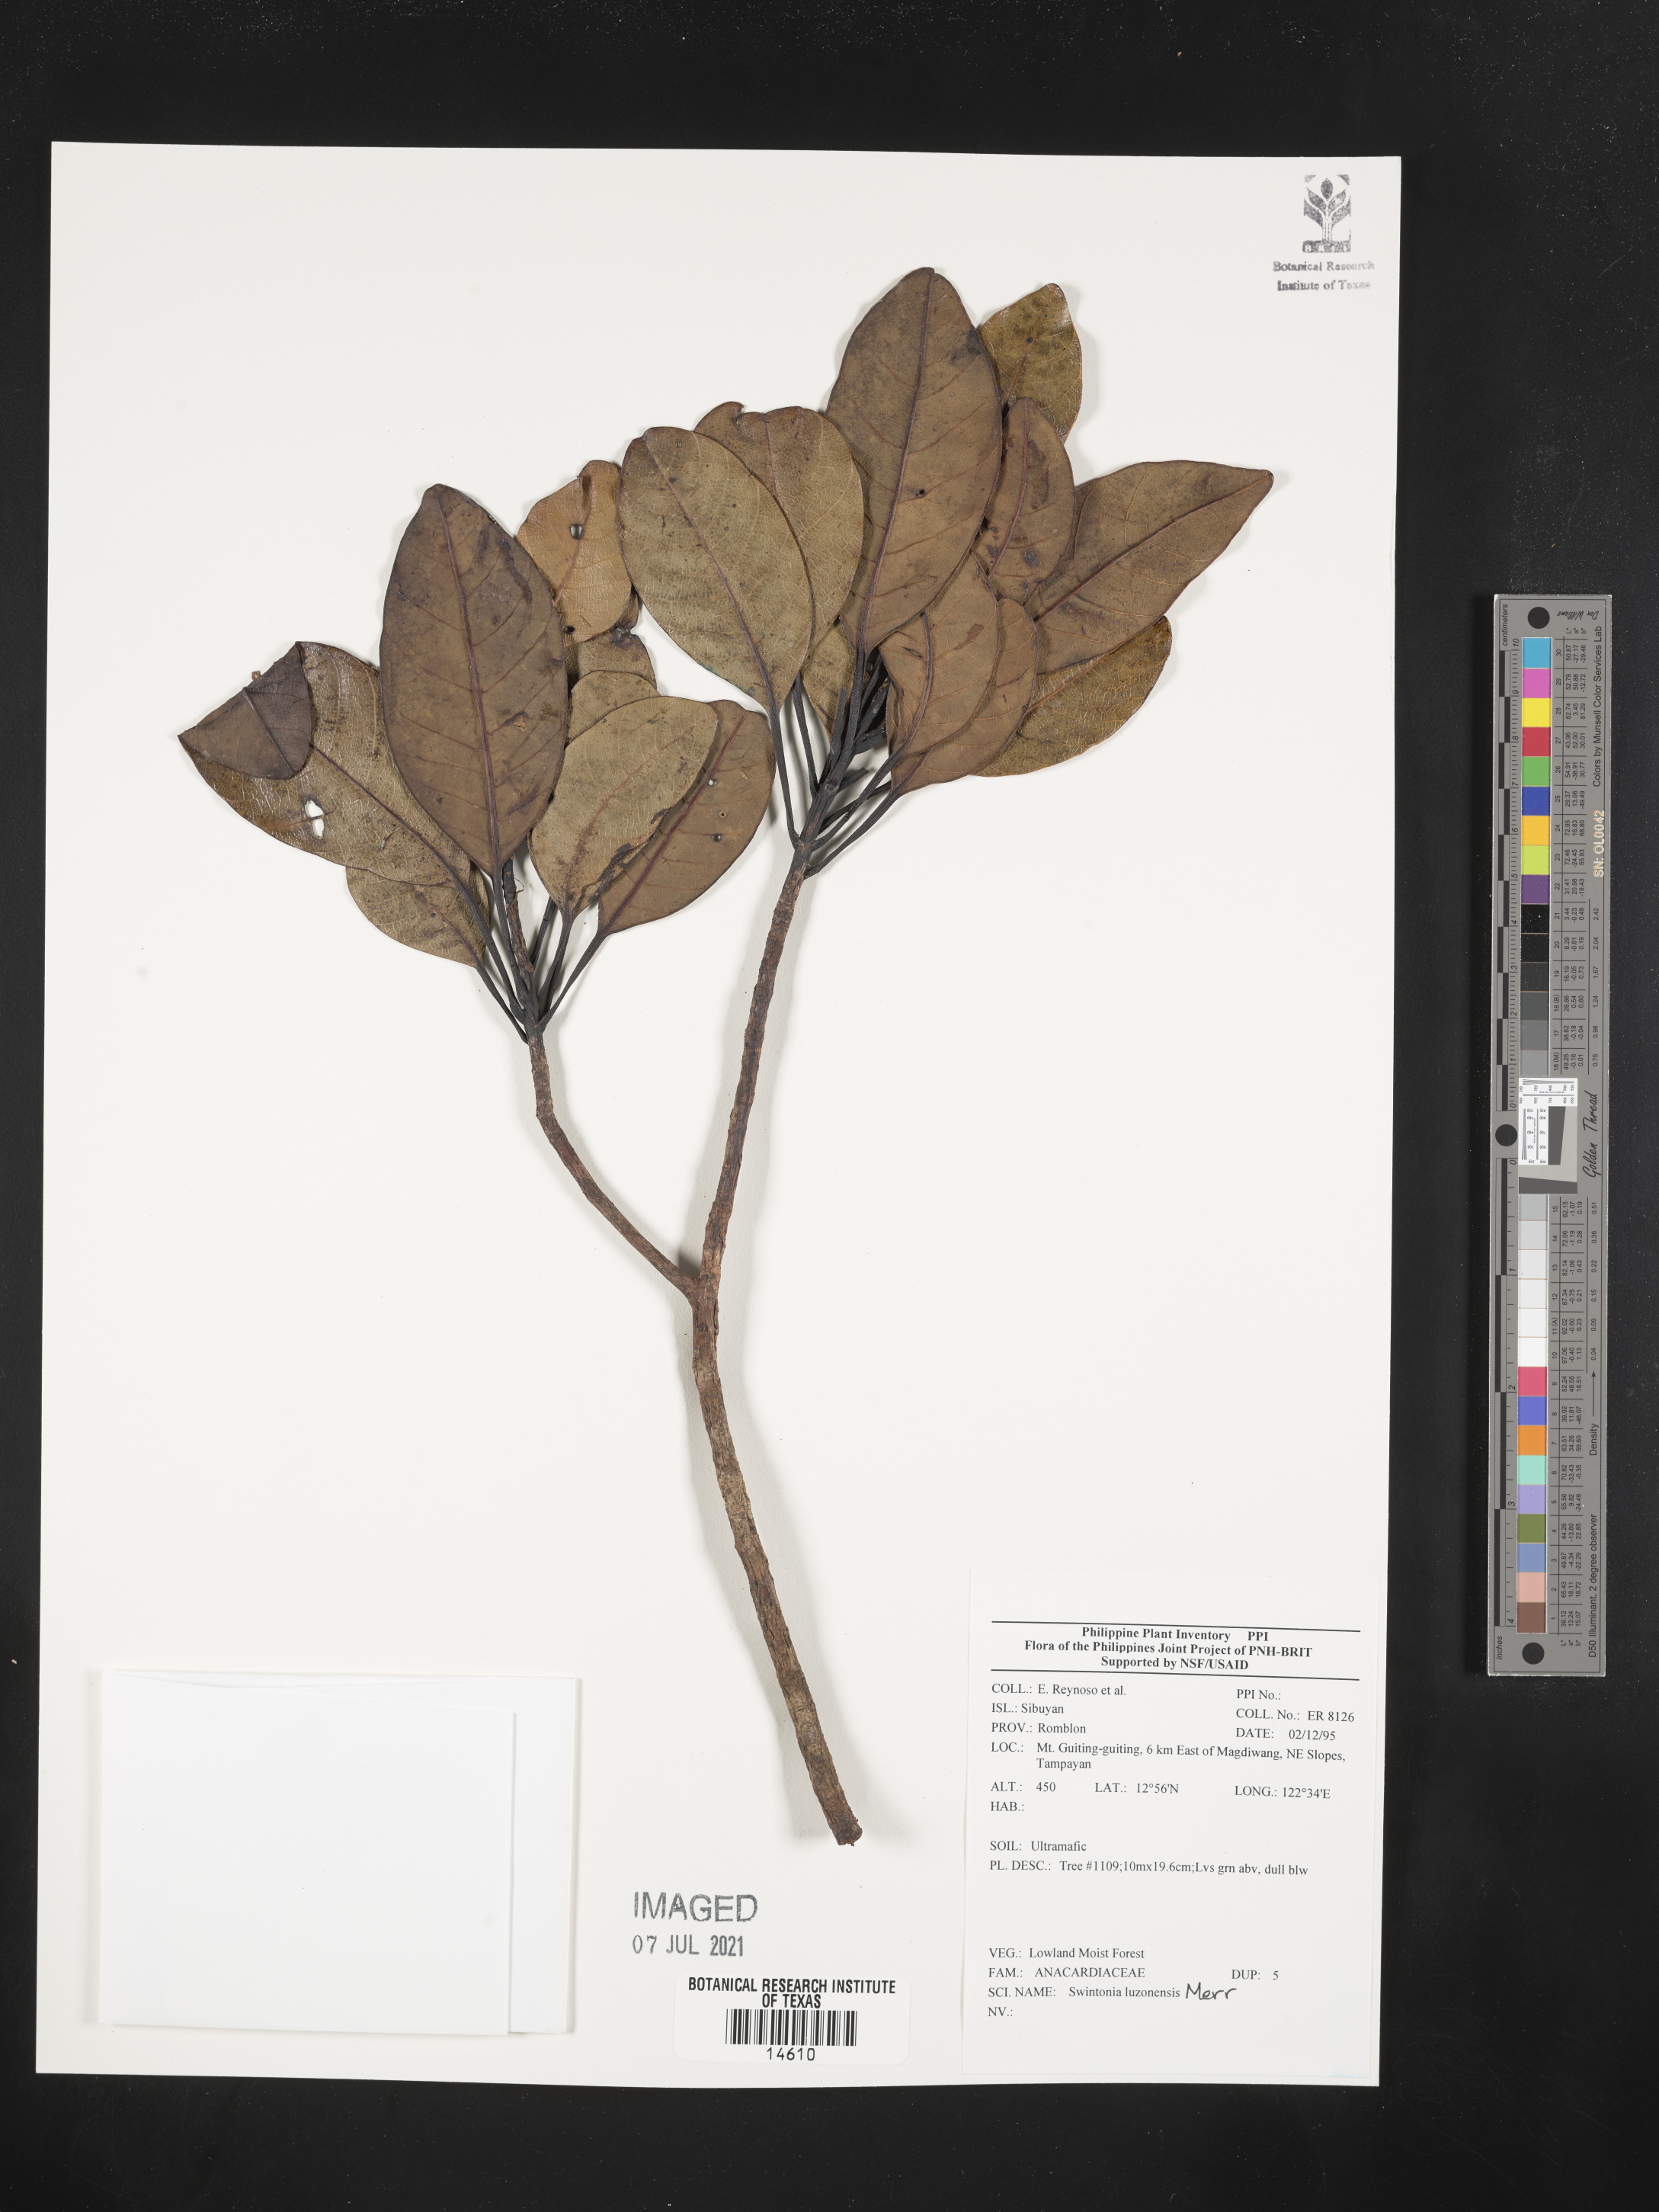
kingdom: Plantae
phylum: Tracheophyta
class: Magnoliopsida
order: Sapindales
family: Anacardiaceae
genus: Swintonia
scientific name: Swintonia acuta
